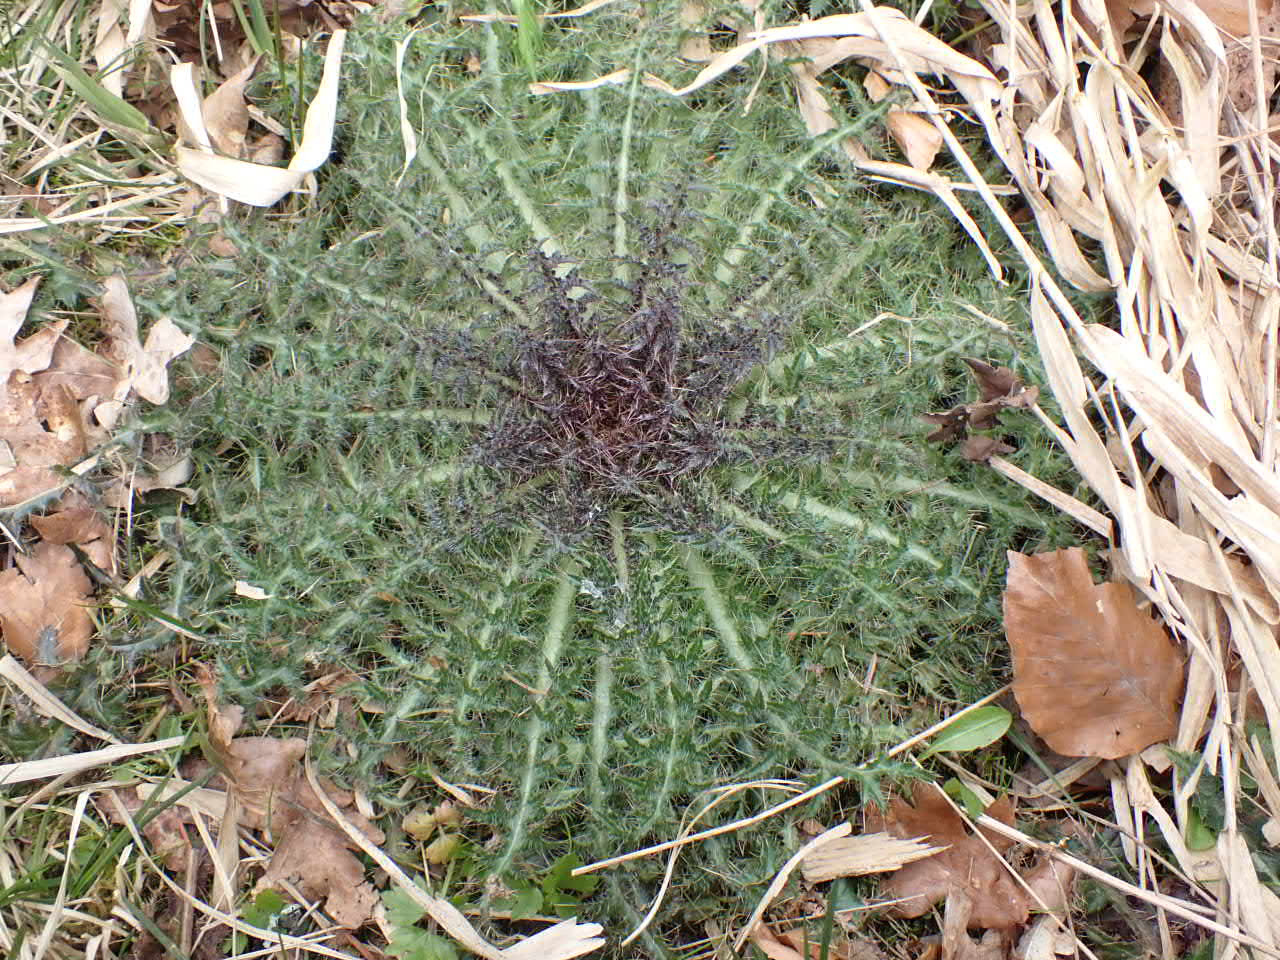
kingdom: Plantae
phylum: Tracheophyta
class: Magnoliopsida
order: Asterales
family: Asteraceae
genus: Cirsium
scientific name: Cirsium vulgare
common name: Horse-tidsel
